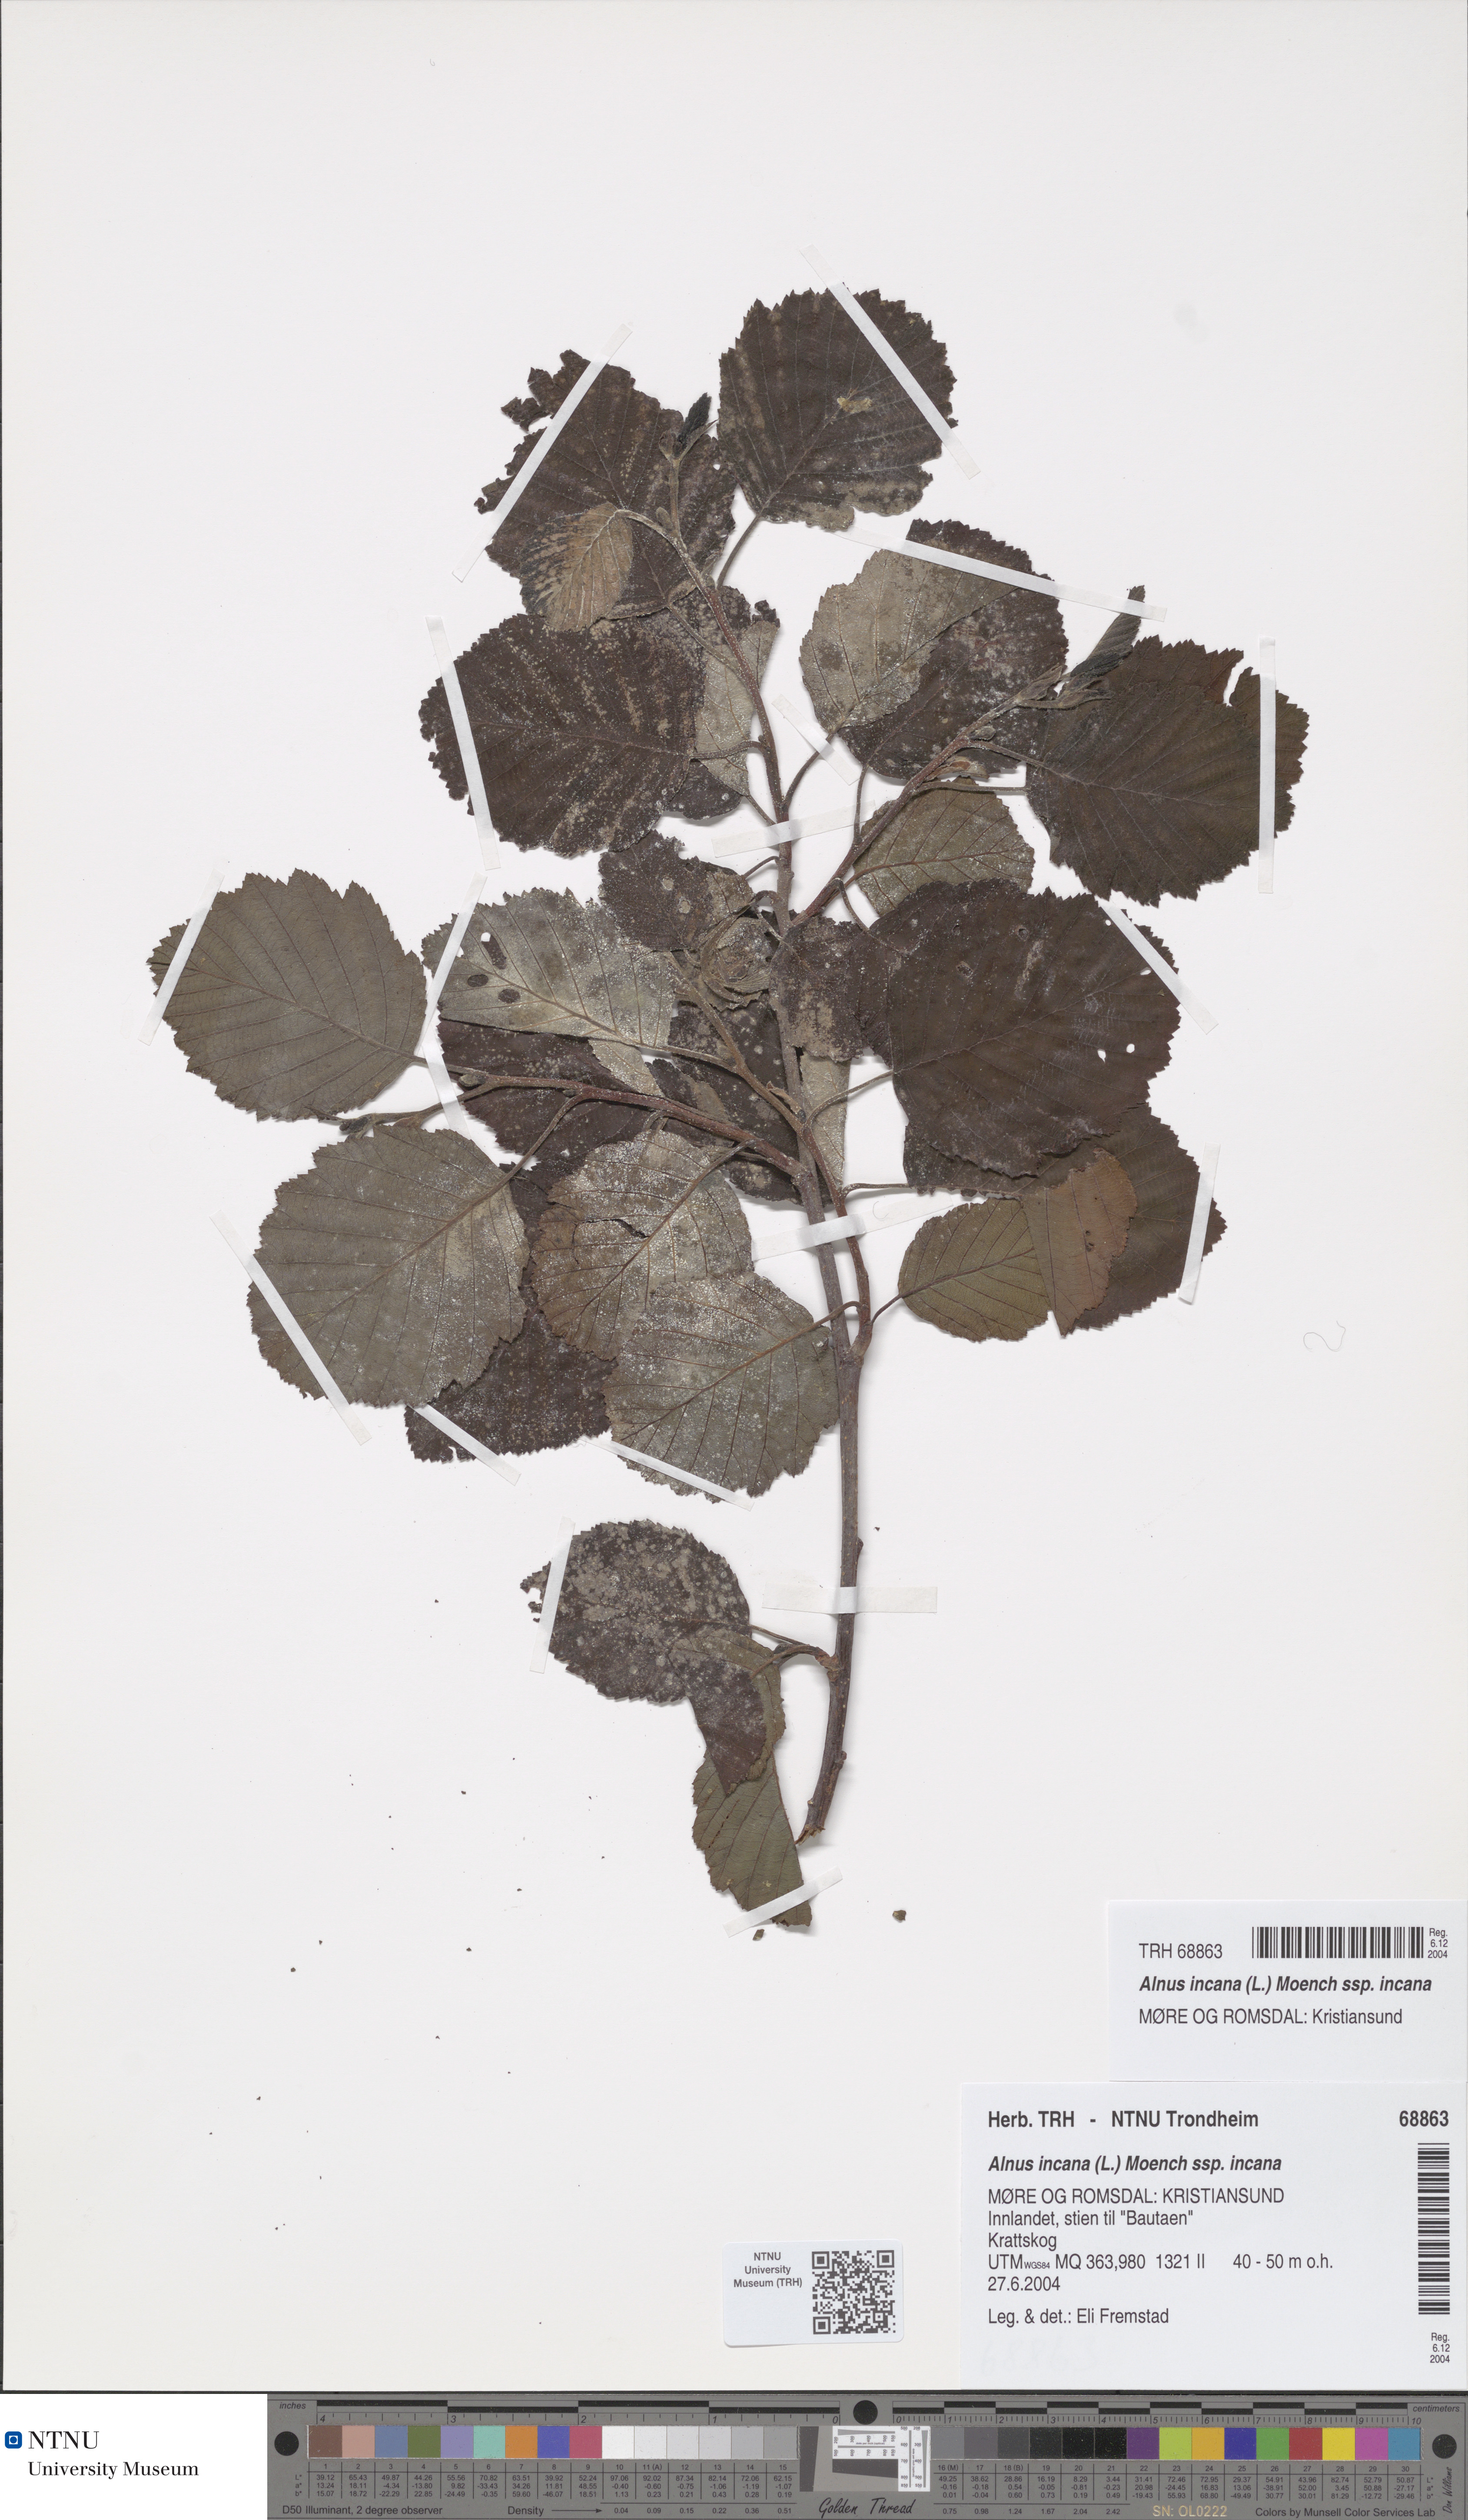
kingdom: Plantae
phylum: Tracheophyta
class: Magnoliopsida
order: Fagales
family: Betulaceae
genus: Alnus
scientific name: Alnus incana
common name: Grey alder
